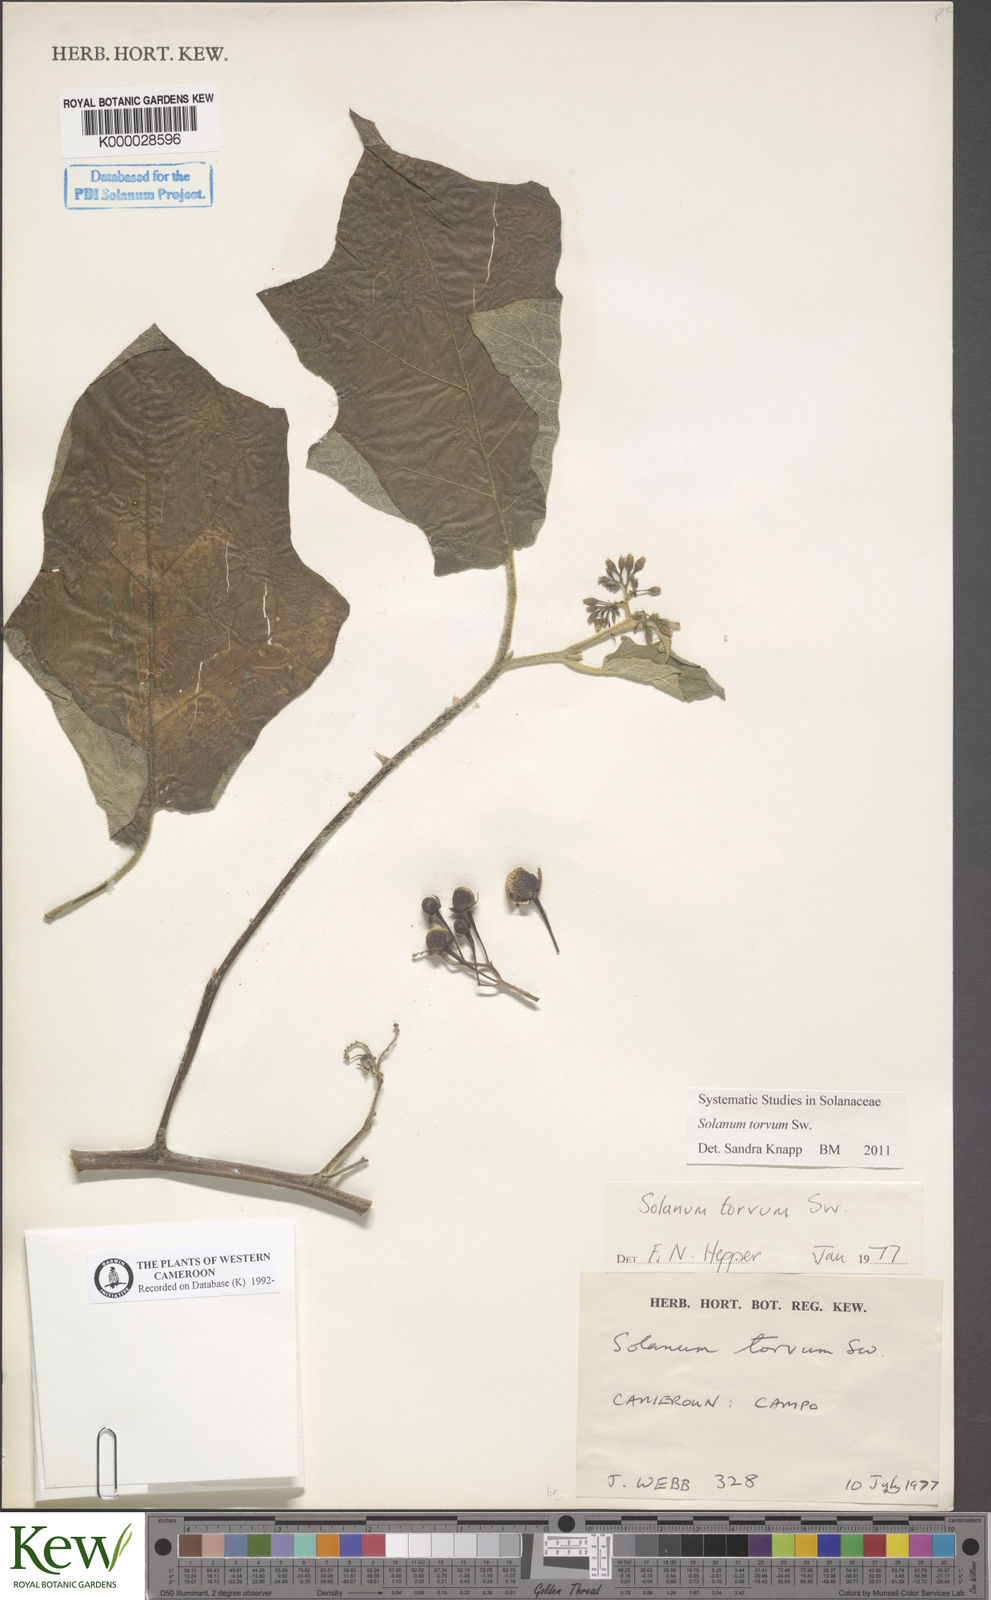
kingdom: Plantae
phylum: Tracheophyta
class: Magnoliopsida
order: Solanales
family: Solanaceae
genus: Solanum
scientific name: Solanum torvum
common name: Turkey berry
